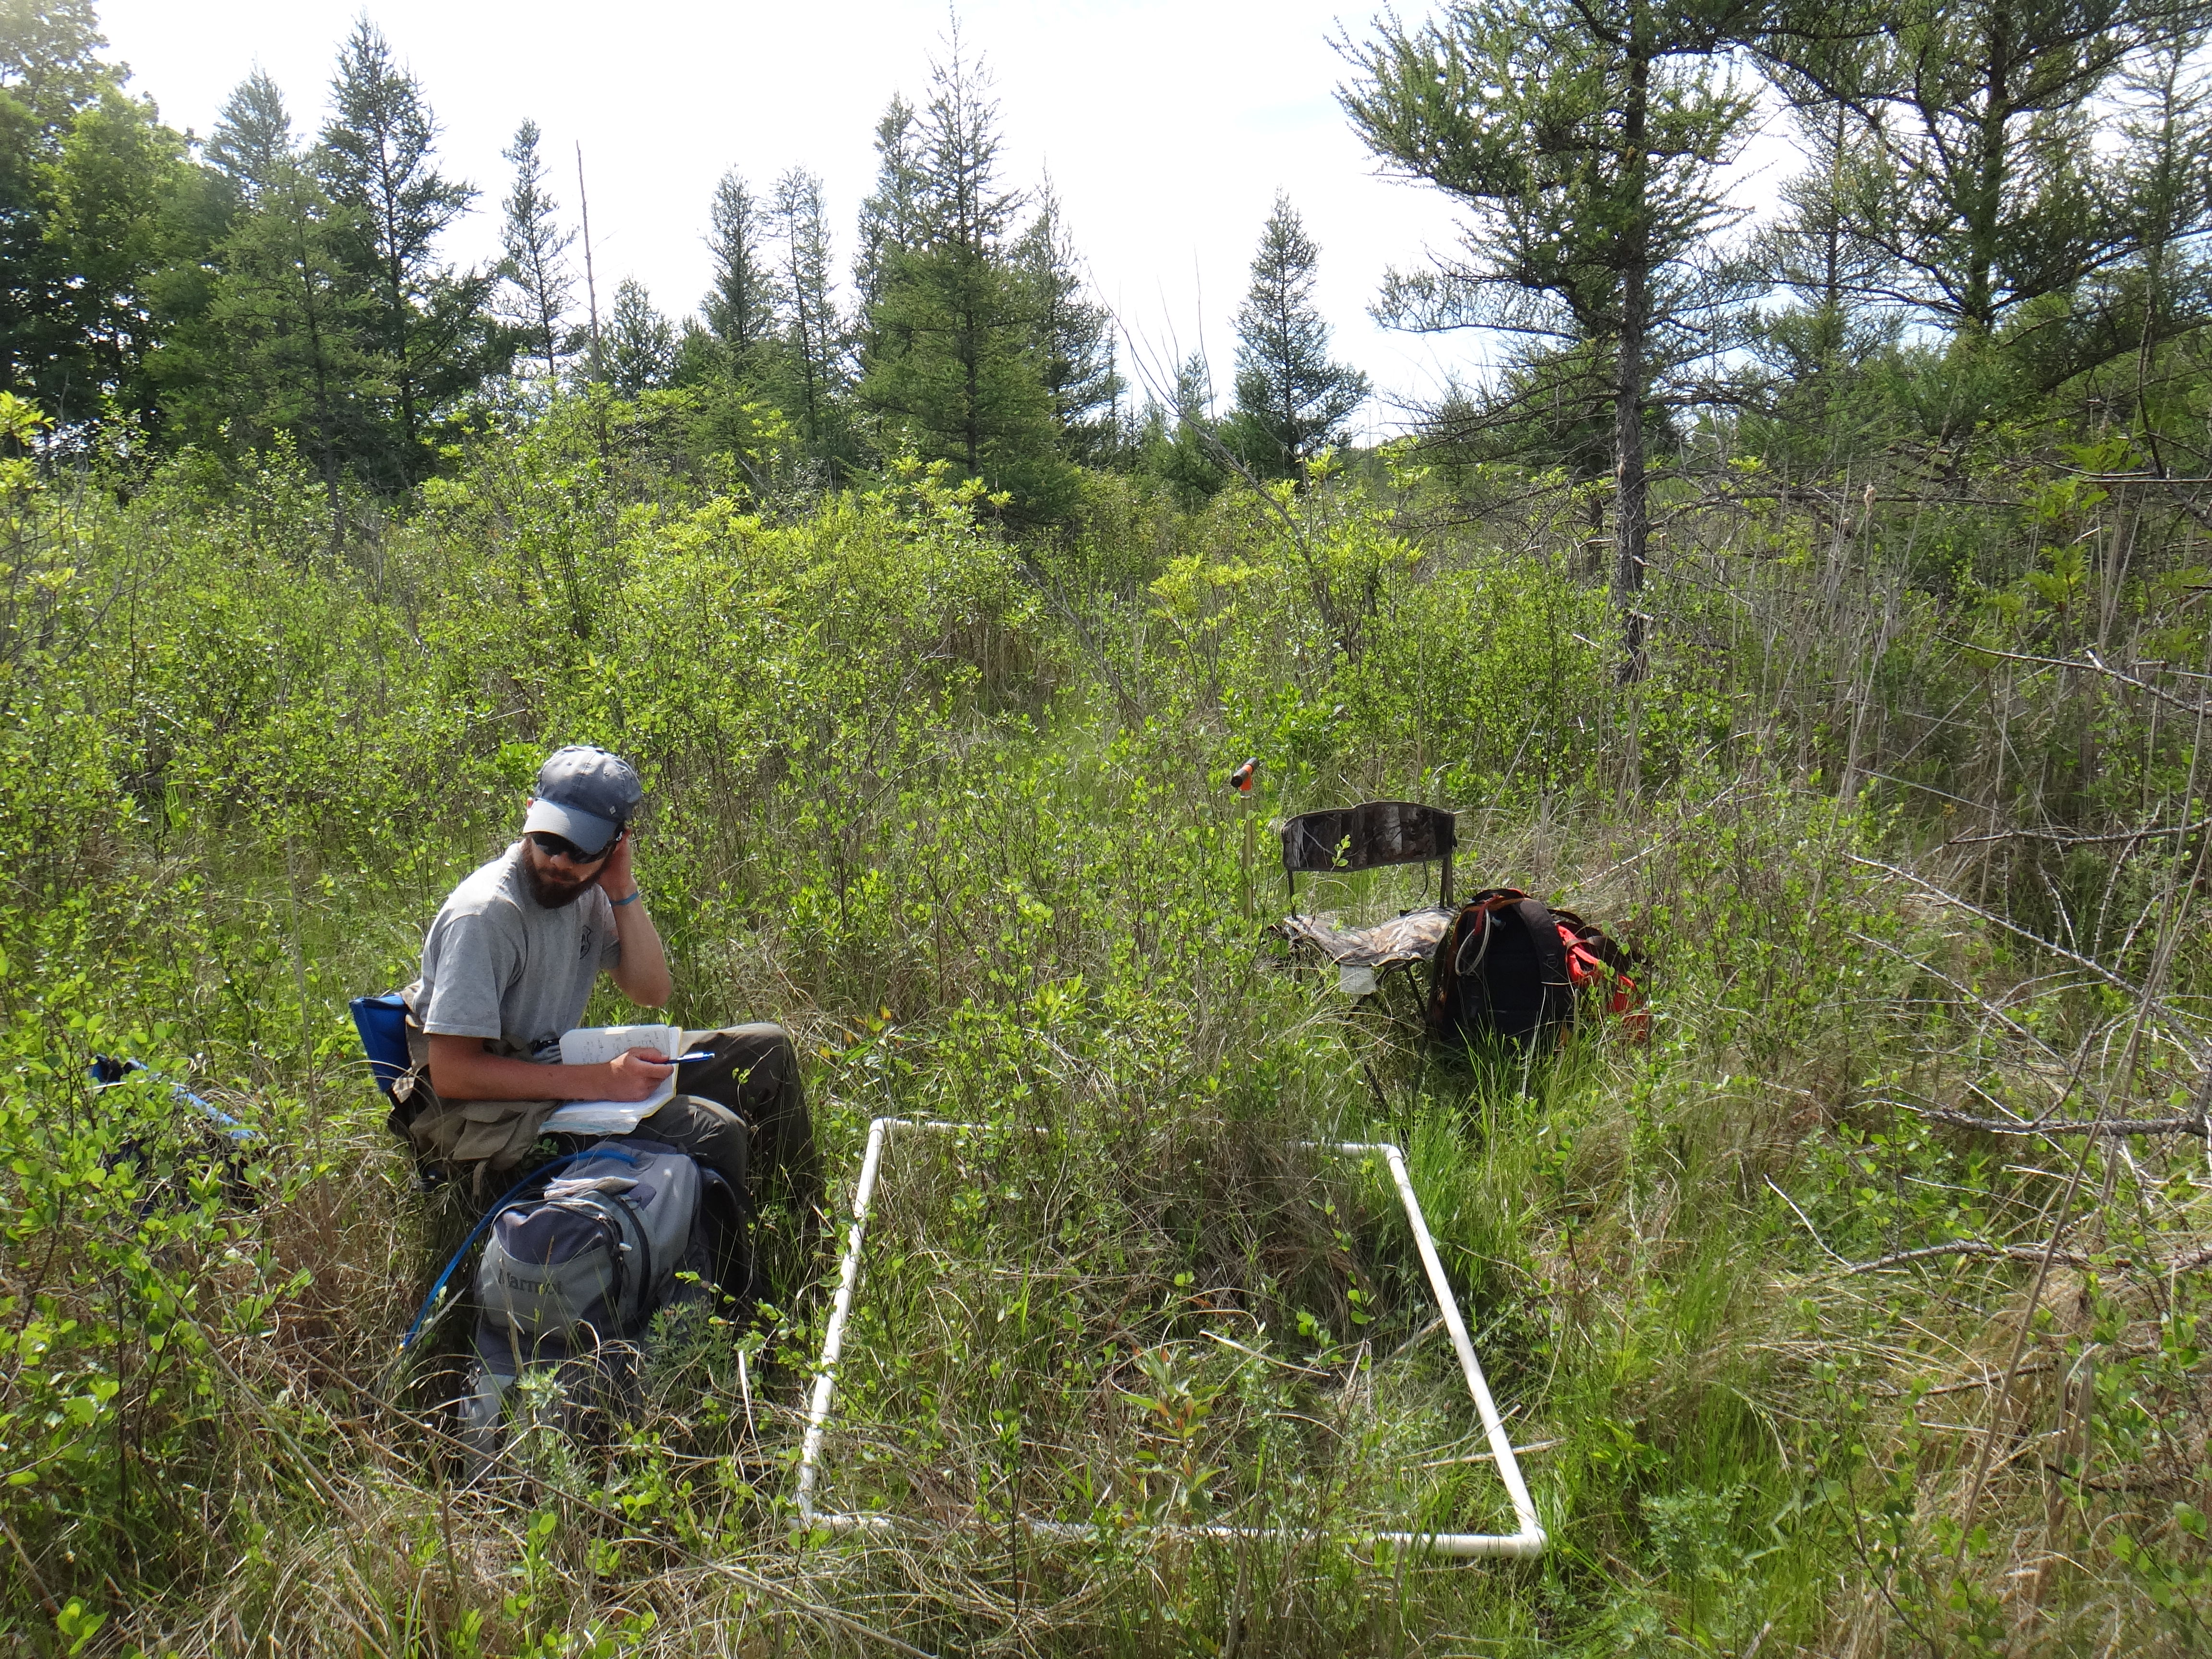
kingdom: Plantae
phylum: Tracheophyta
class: Magnoliopsida
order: Asterales
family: Asteraceae
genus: Solidago
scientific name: Solidago patula
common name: Rough-leaf goldenrod
